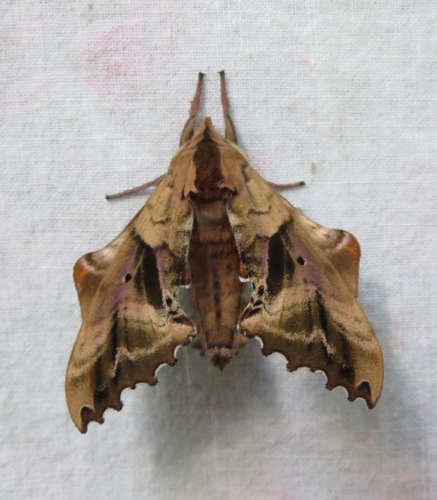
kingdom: Animalia
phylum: Arthropoda
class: Insecta
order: Lepidoptera
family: Sphingidae
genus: Paonias
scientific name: Paonias excaecata
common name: Blind-eyed sphinx
